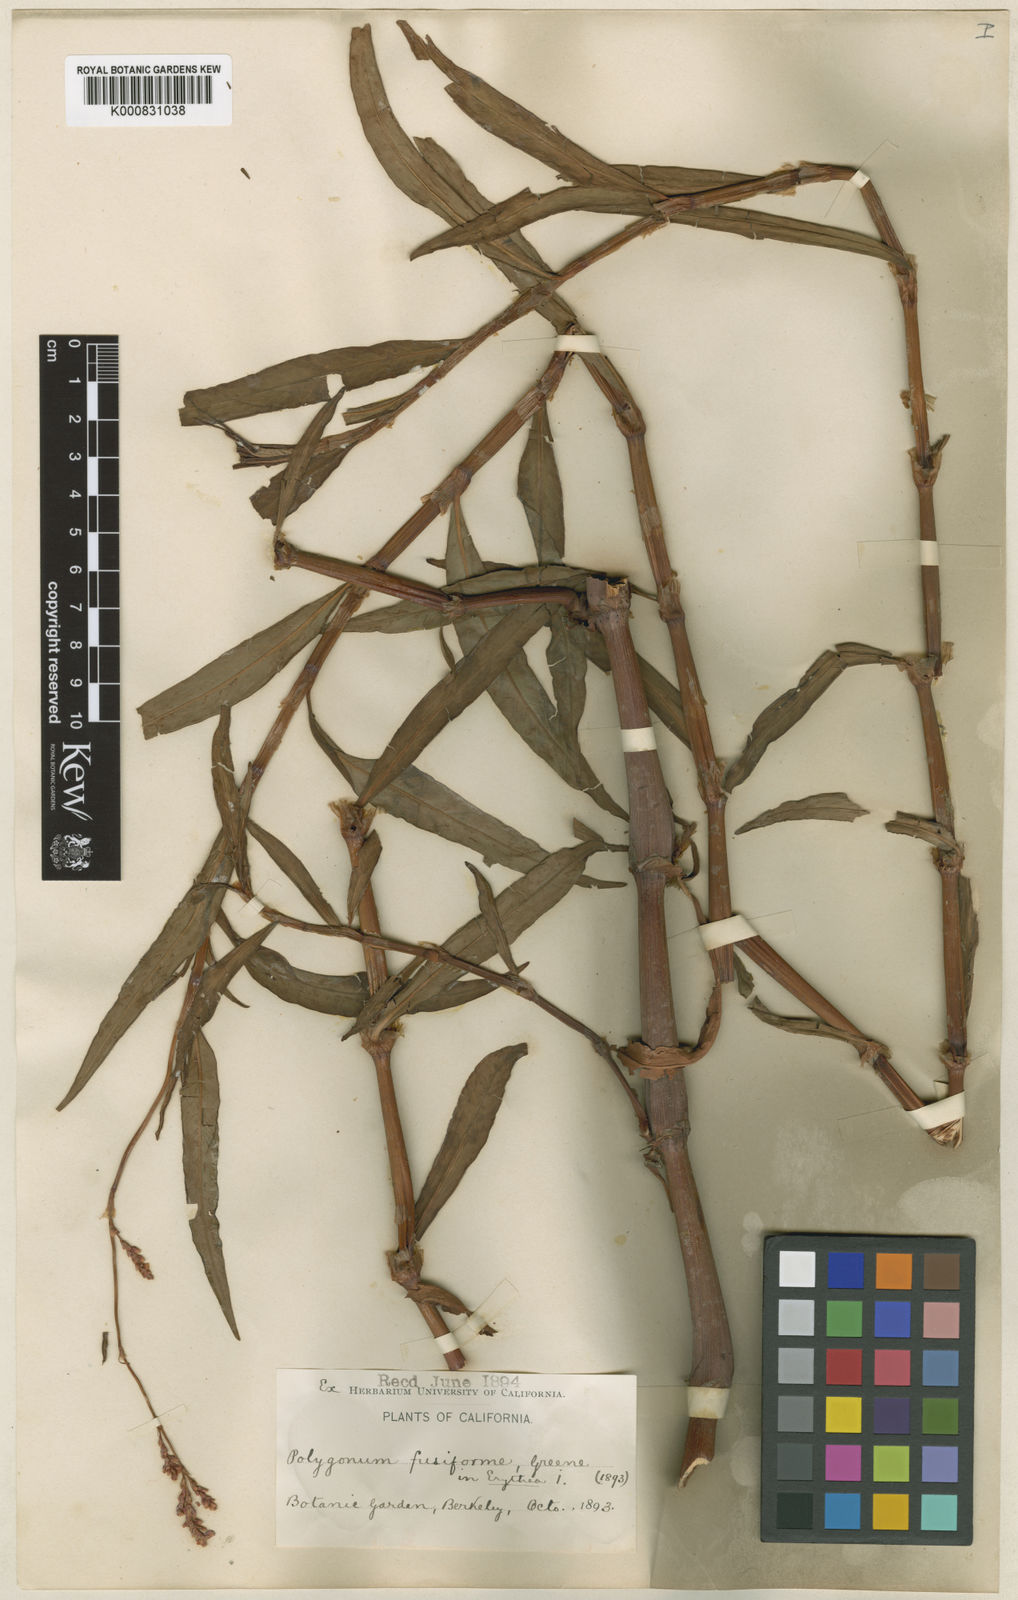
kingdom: Plantae
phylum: Tracheophyta
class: Magnoliopsida
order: Caryophyllales
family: Polygonaceae
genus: Persicaria
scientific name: Persicaria maculosa
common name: Redshank
